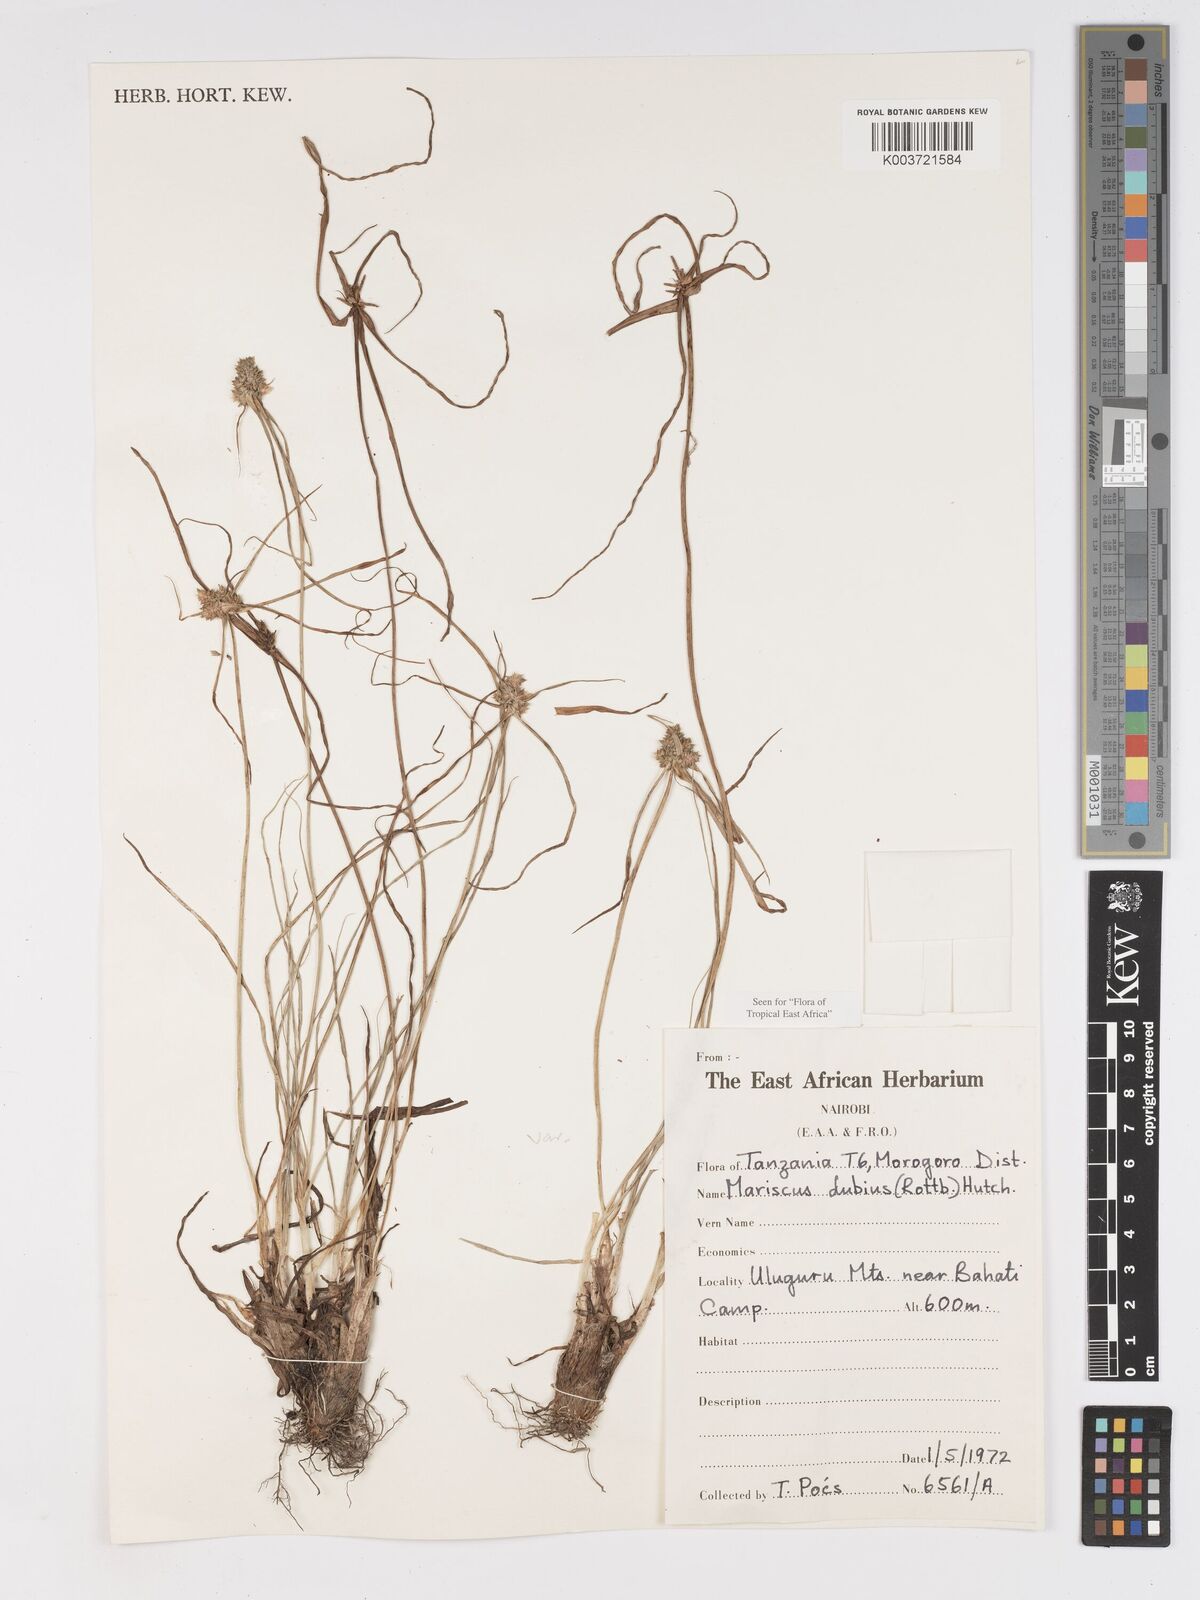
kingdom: Plantae
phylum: Tracheophyta
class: Liliopsida
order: Poales
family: Cyperaceae
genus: Cyperus
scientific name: Cyperus dubius
